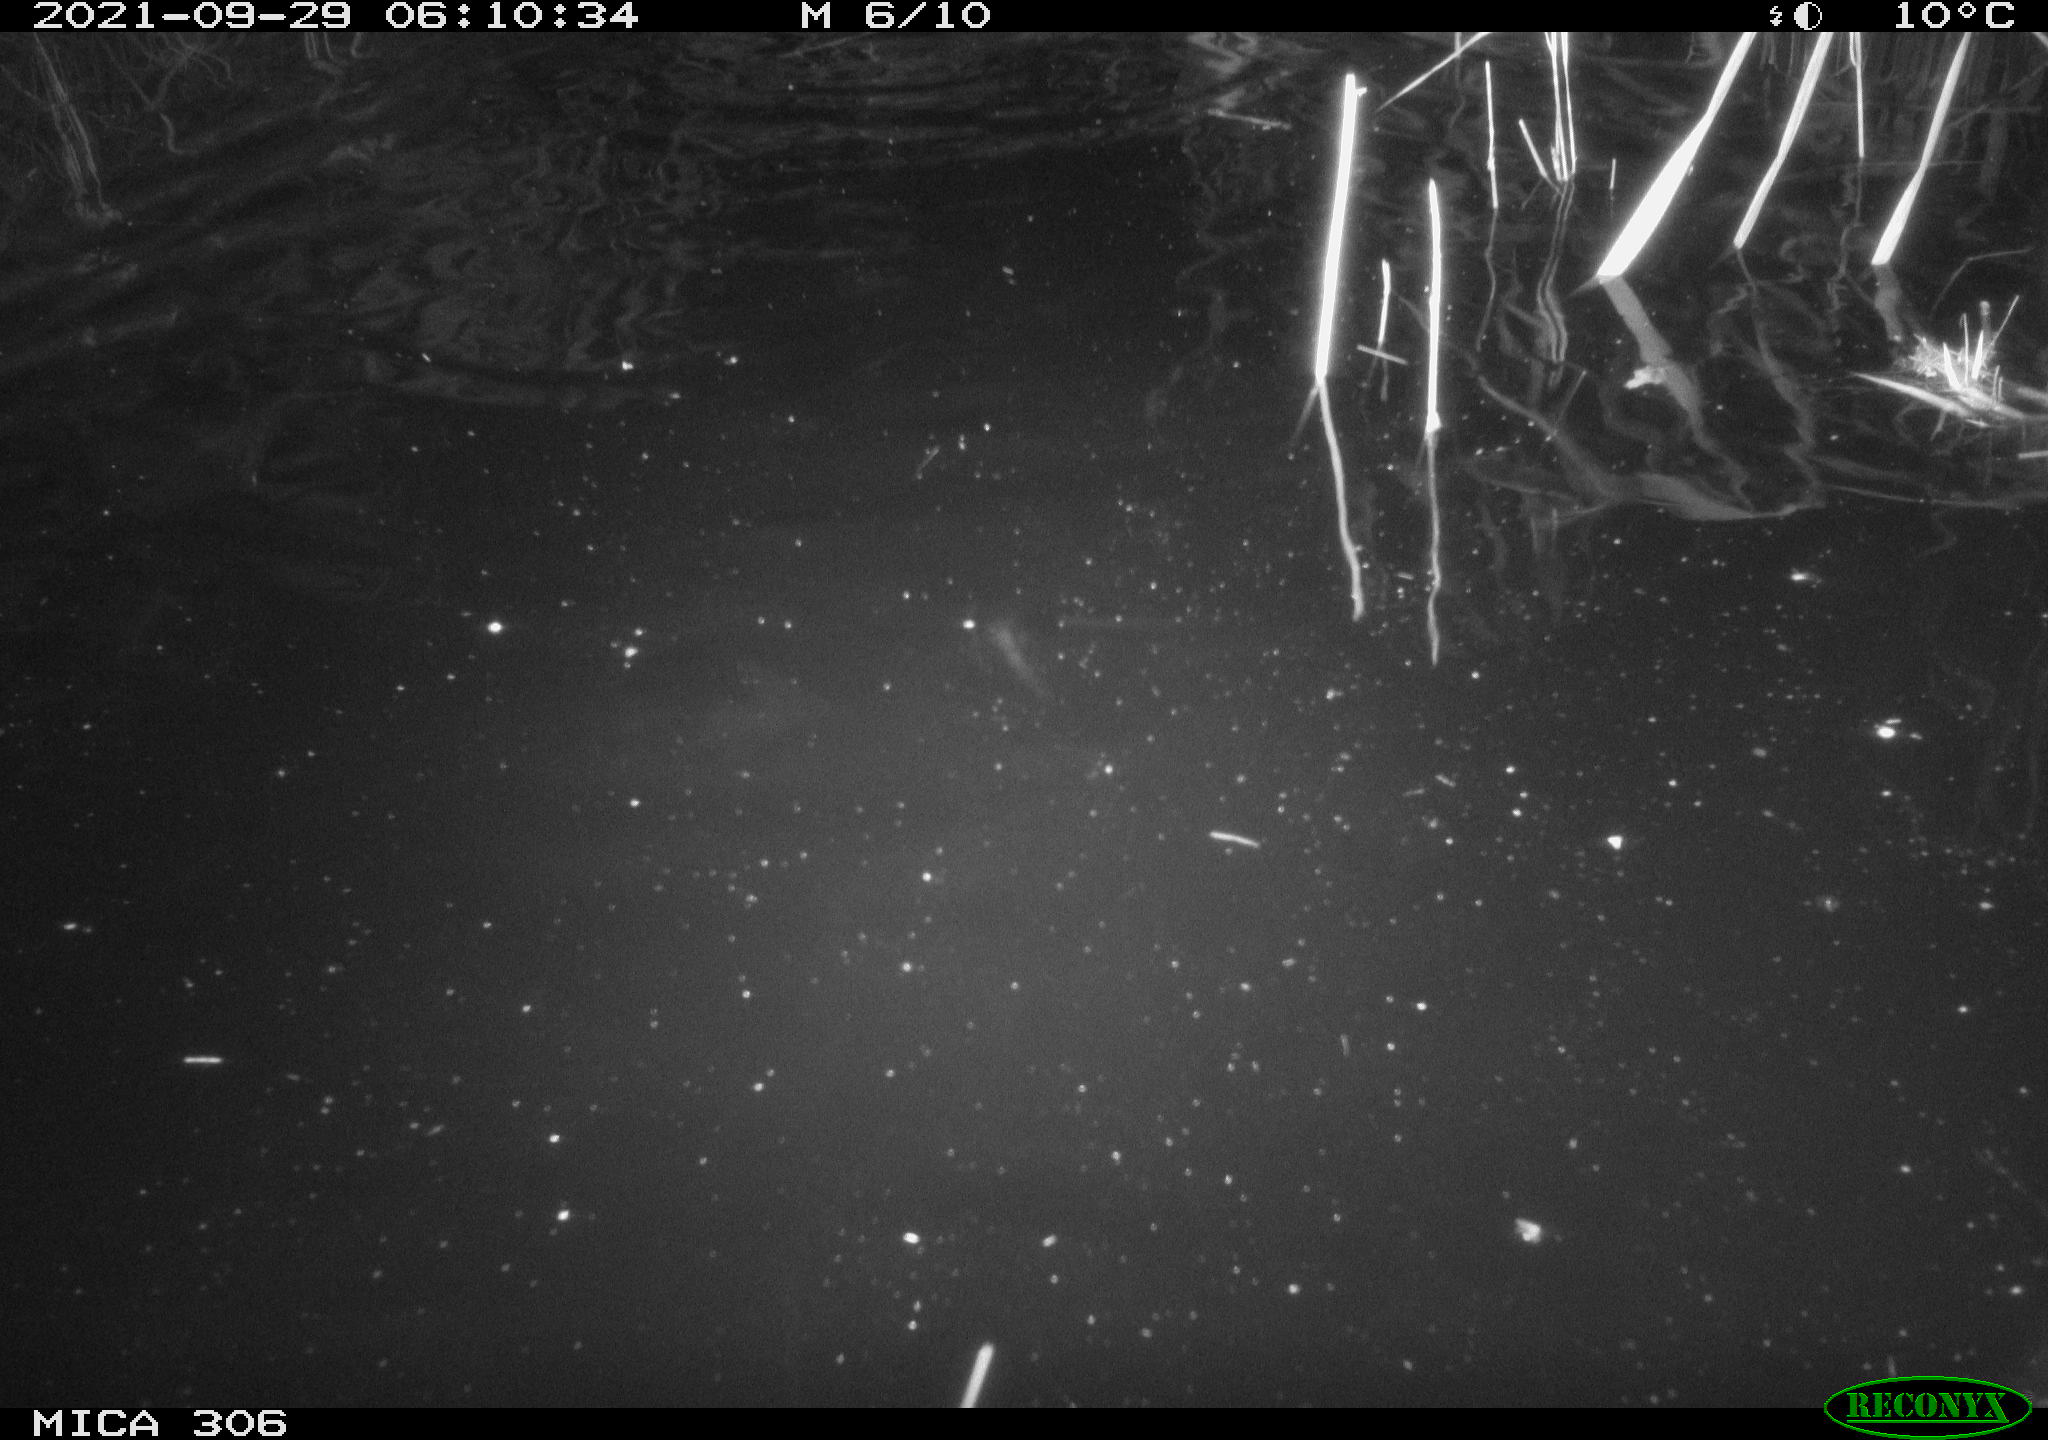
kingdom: Animalia
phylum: Chordata
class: Mammalia
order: Rodentia
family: Cricetidae
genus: Ondatra
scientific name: Ondatra zibethicus
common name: Muskrat
